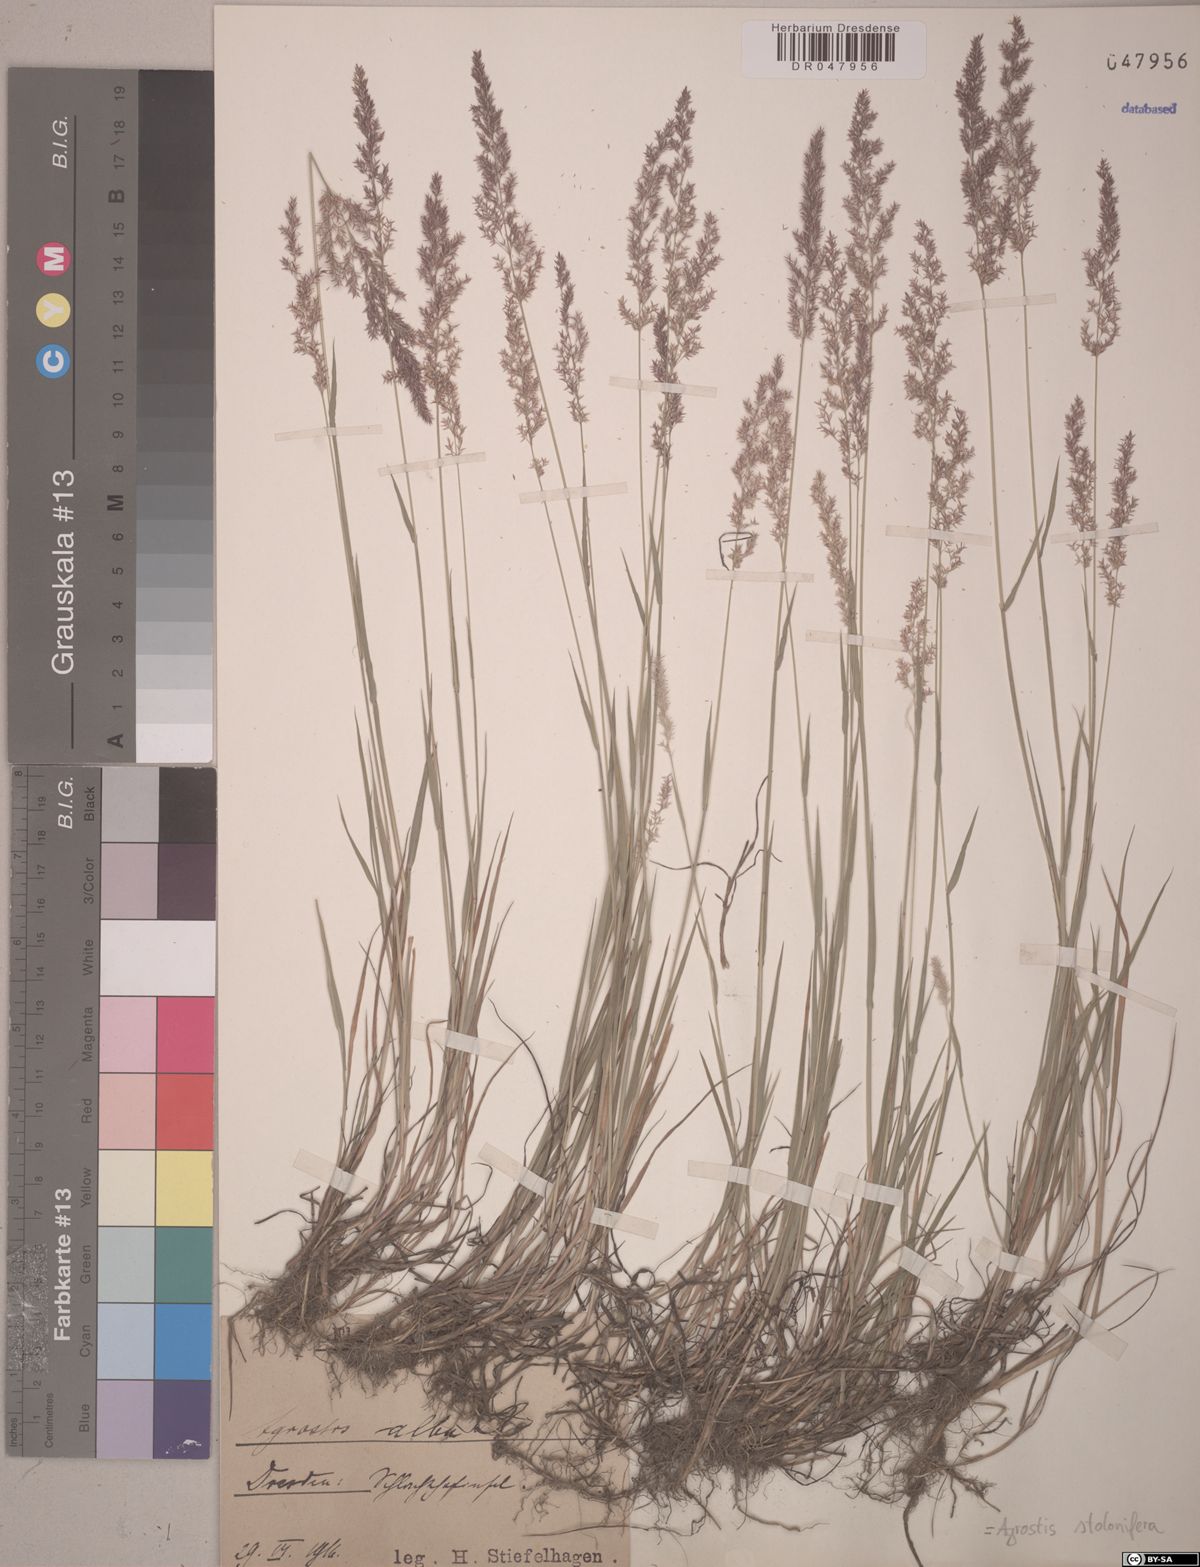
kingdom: Plantae
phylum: Tracheophyta
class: Liliopsida
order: Poales
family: Poaceae
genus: Agrostis
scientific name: Agrostis stolonifera
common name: Creeping bentgrass
